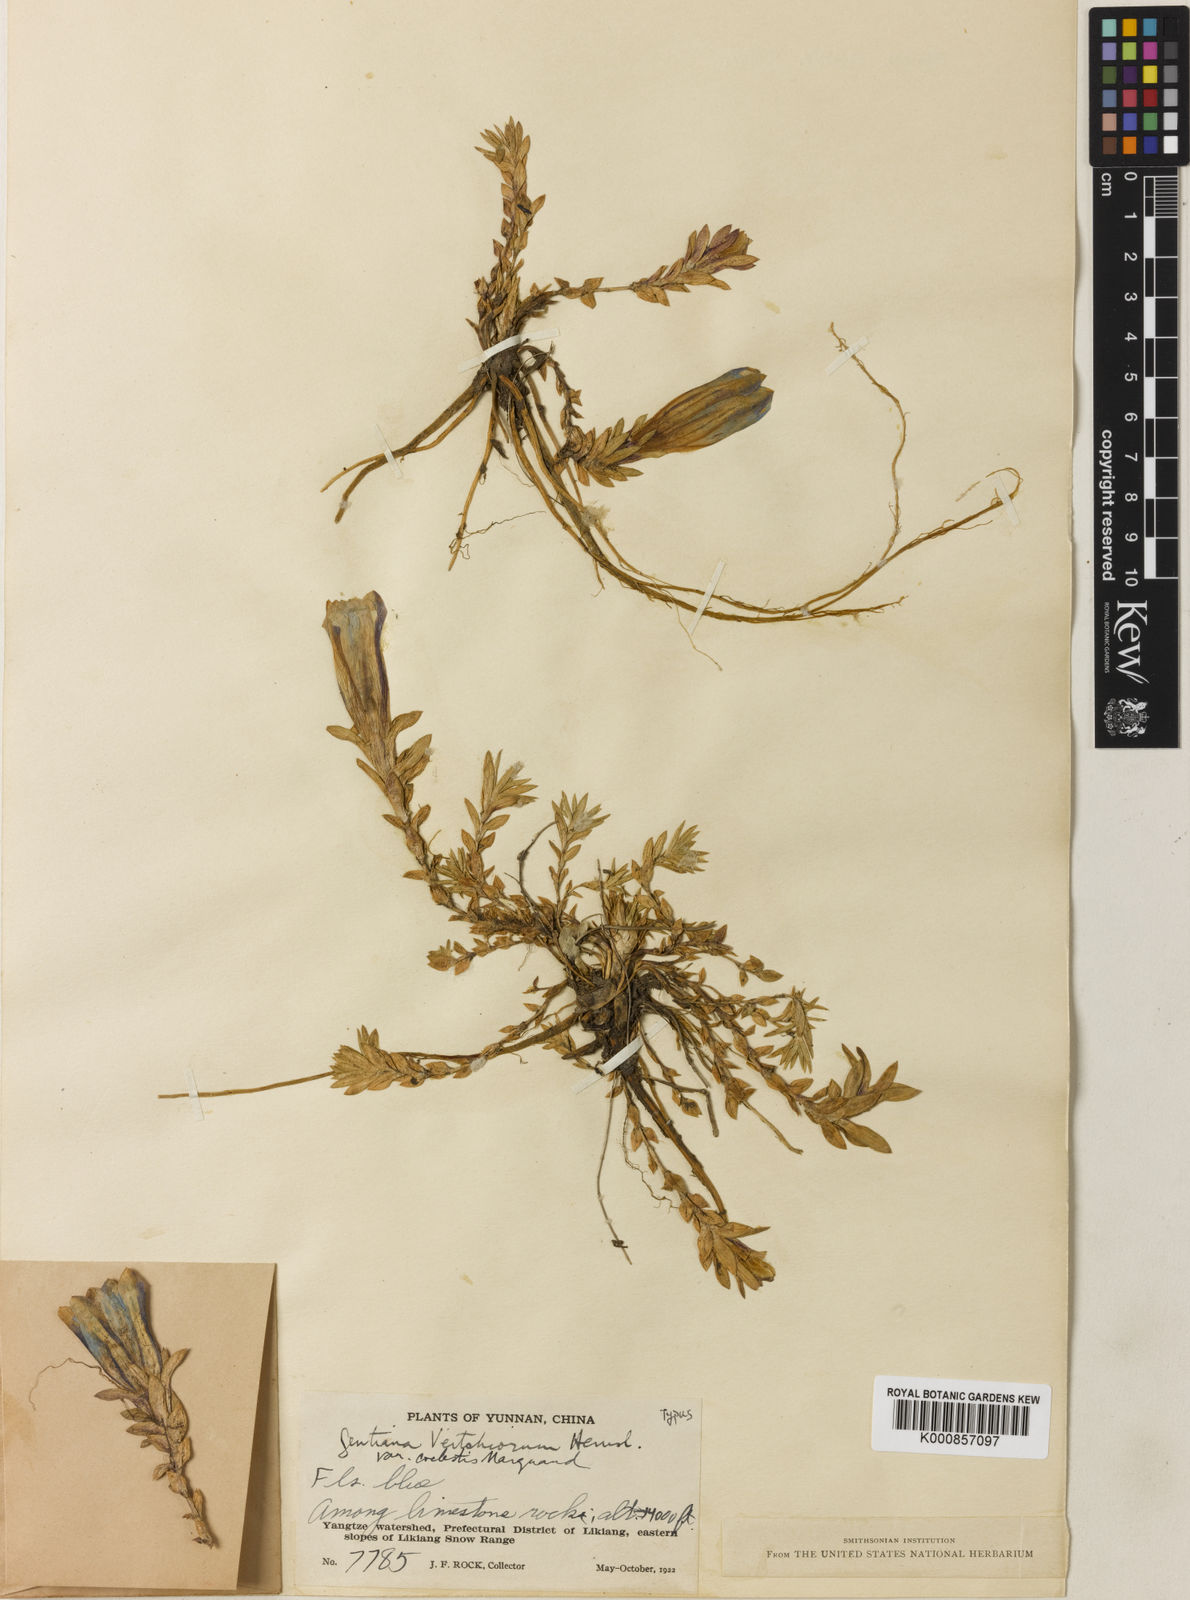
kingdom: Plantae
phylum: Tracheophyta
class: Magnoliopsida
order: Gentianales
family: Gentianaceae
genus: Gentiana
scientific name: Gentiana caelestis
